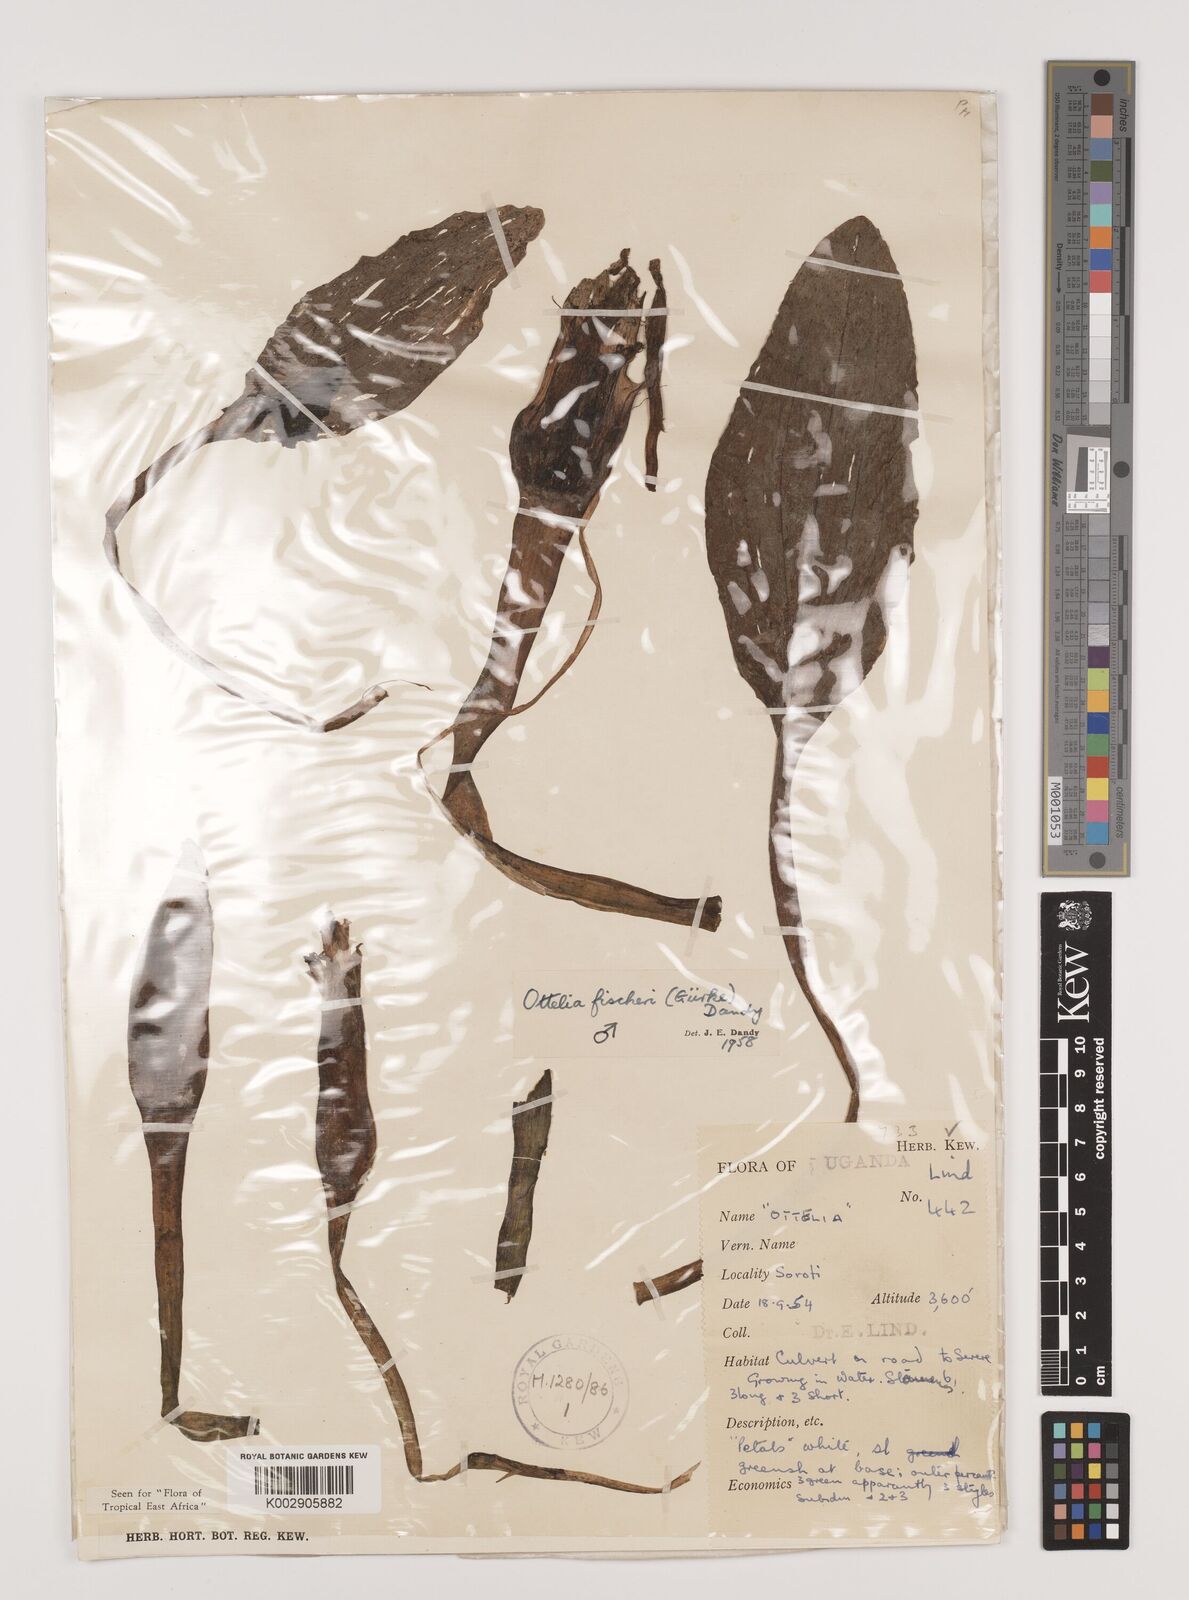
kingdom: Plantae
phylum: Tracheophyta
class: Liliopsida
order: Alismatales
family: Hydrocharitaceae
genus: Ottelia
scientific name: Ottelia fischeri
